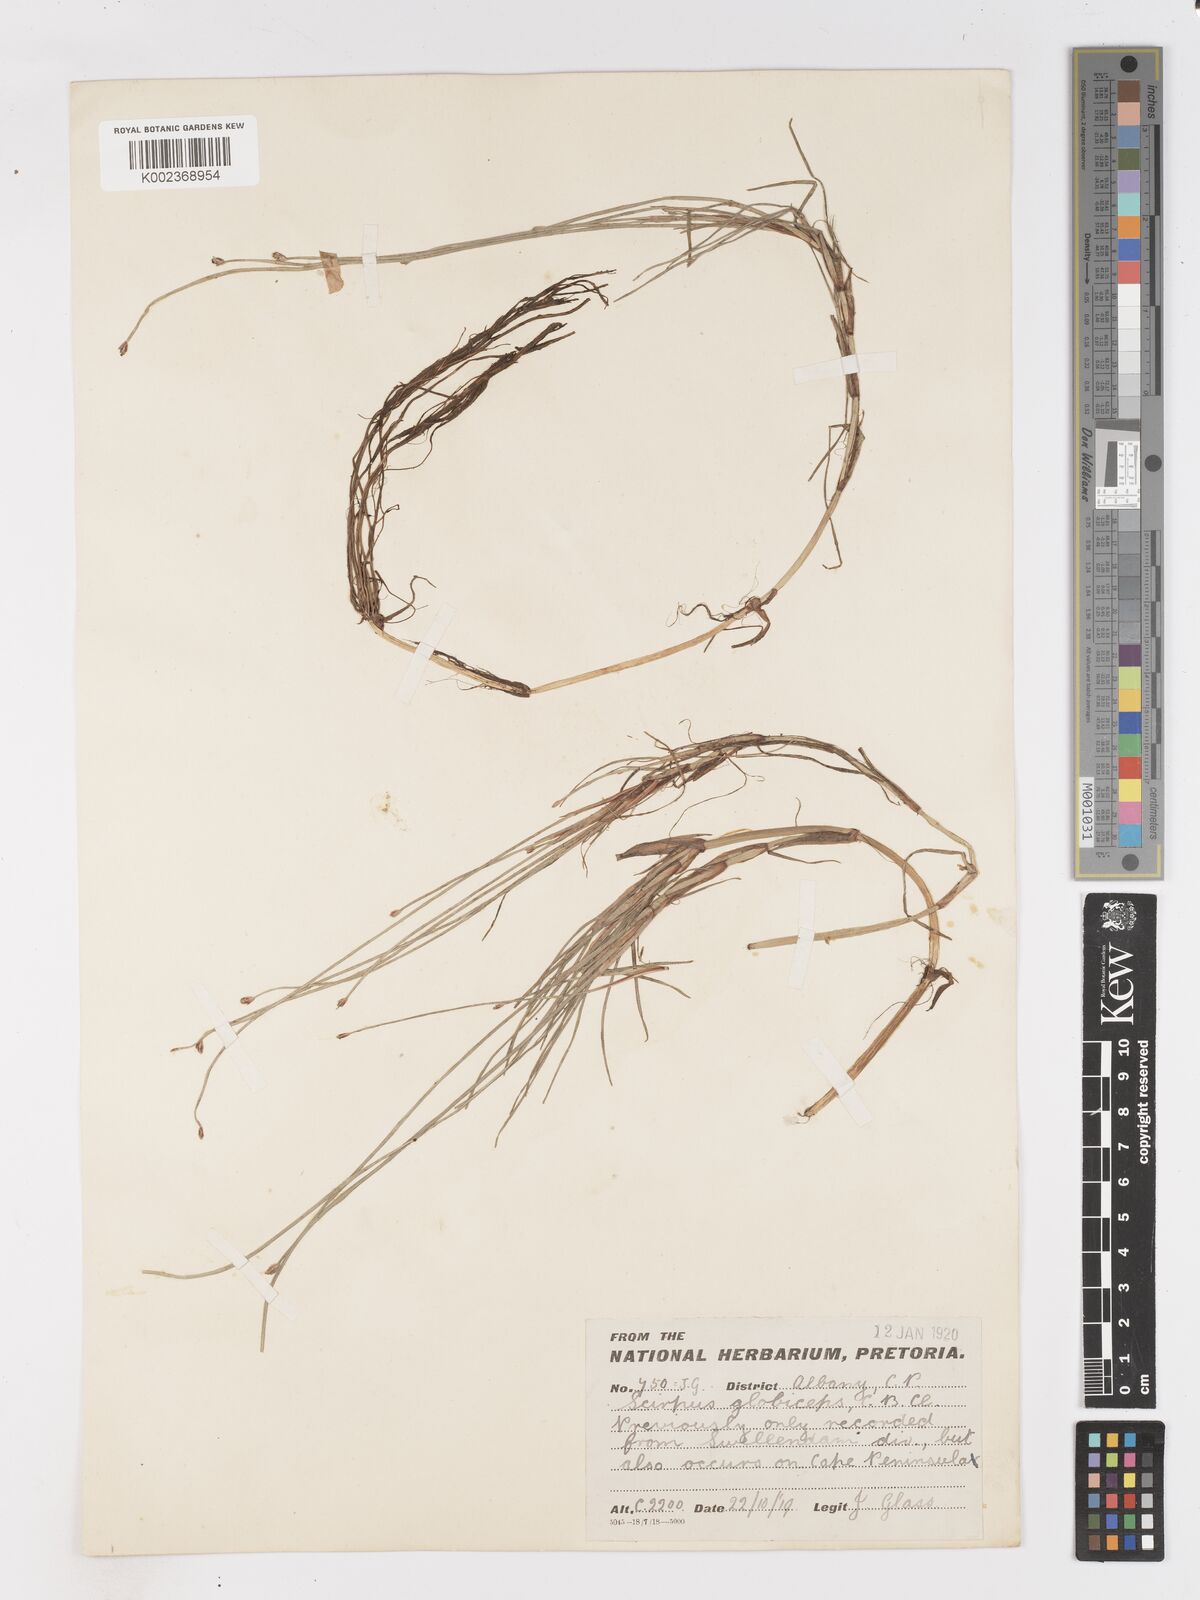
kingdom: Plantae
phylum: Tracheophyta
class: Liliopsida
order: Poales
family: Cyperaceae
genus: Isolepis
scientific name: Isolepis rubicunda
